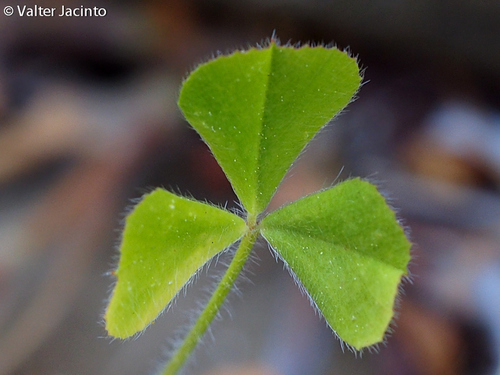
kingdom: Plantae
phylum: Tracheophyta
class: Magnoliopsida
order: Fabales
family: Fabaceae
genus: Trifolium
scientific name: Trifolium stellatum
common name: Starry clover
